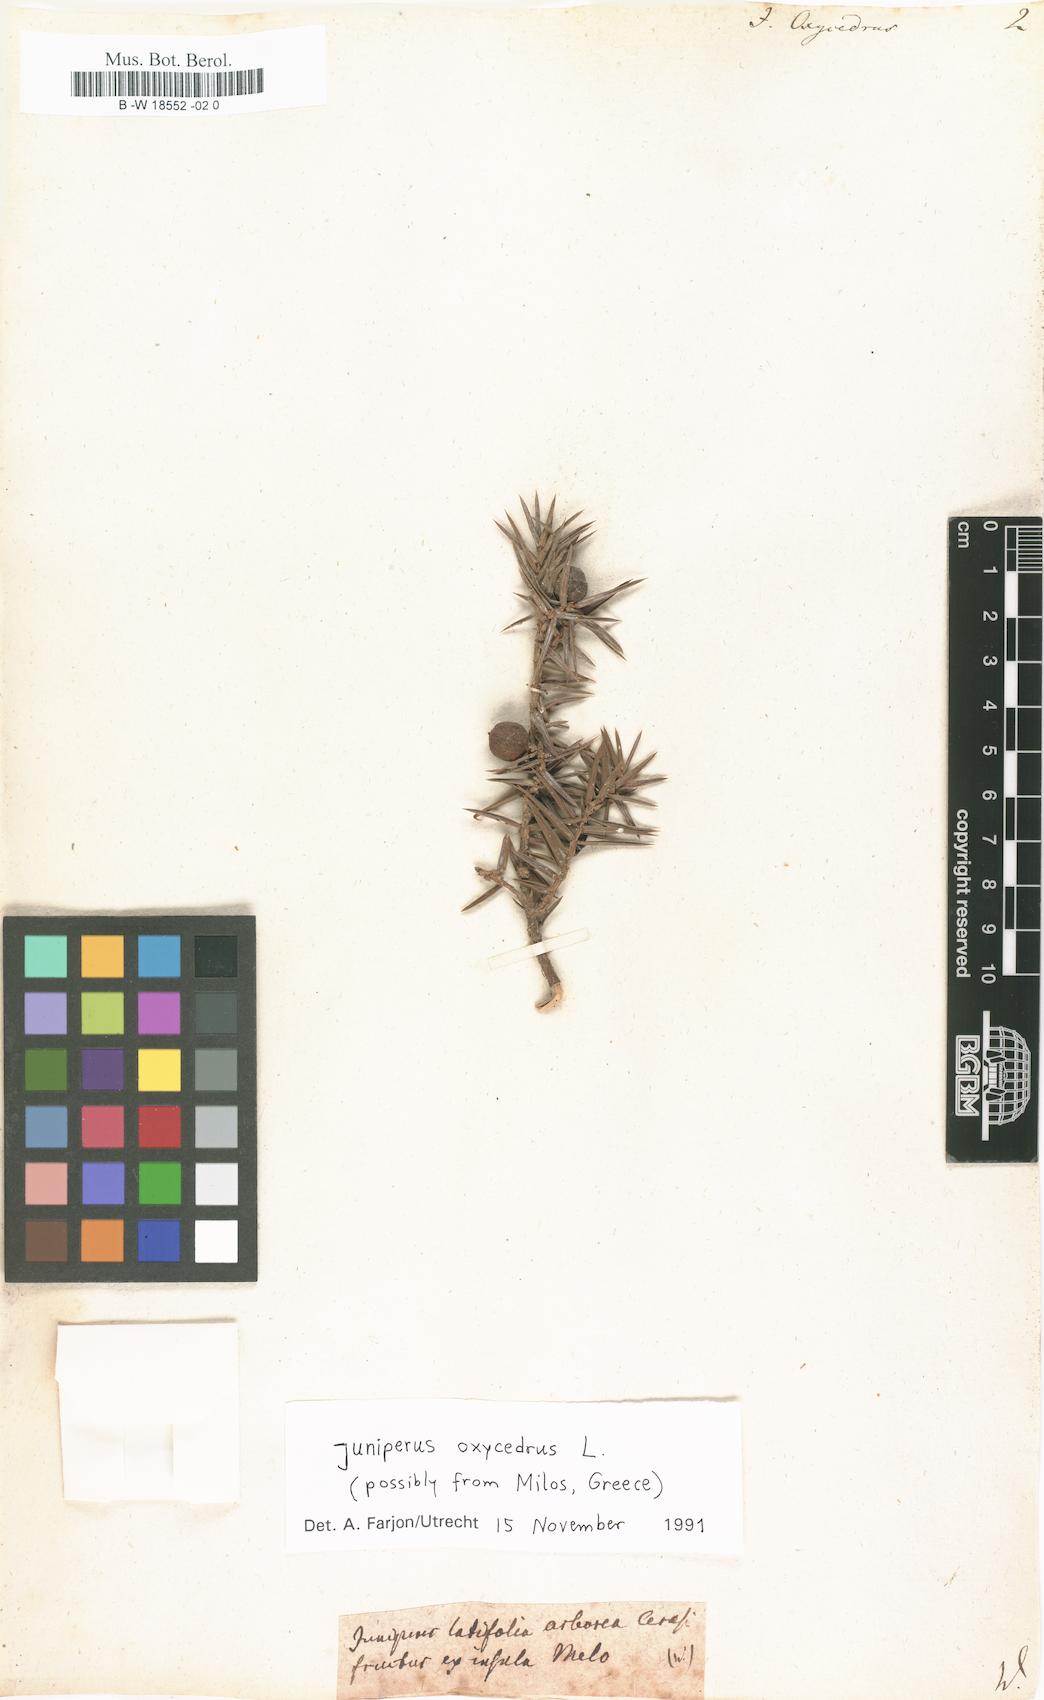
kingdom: Plantae
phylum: Tracheophyta
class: Pinopsida
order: Pinales
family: Cupressaceae
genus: Juniperus
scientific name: Juniperus oxycedrus
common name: Prickly juniper
